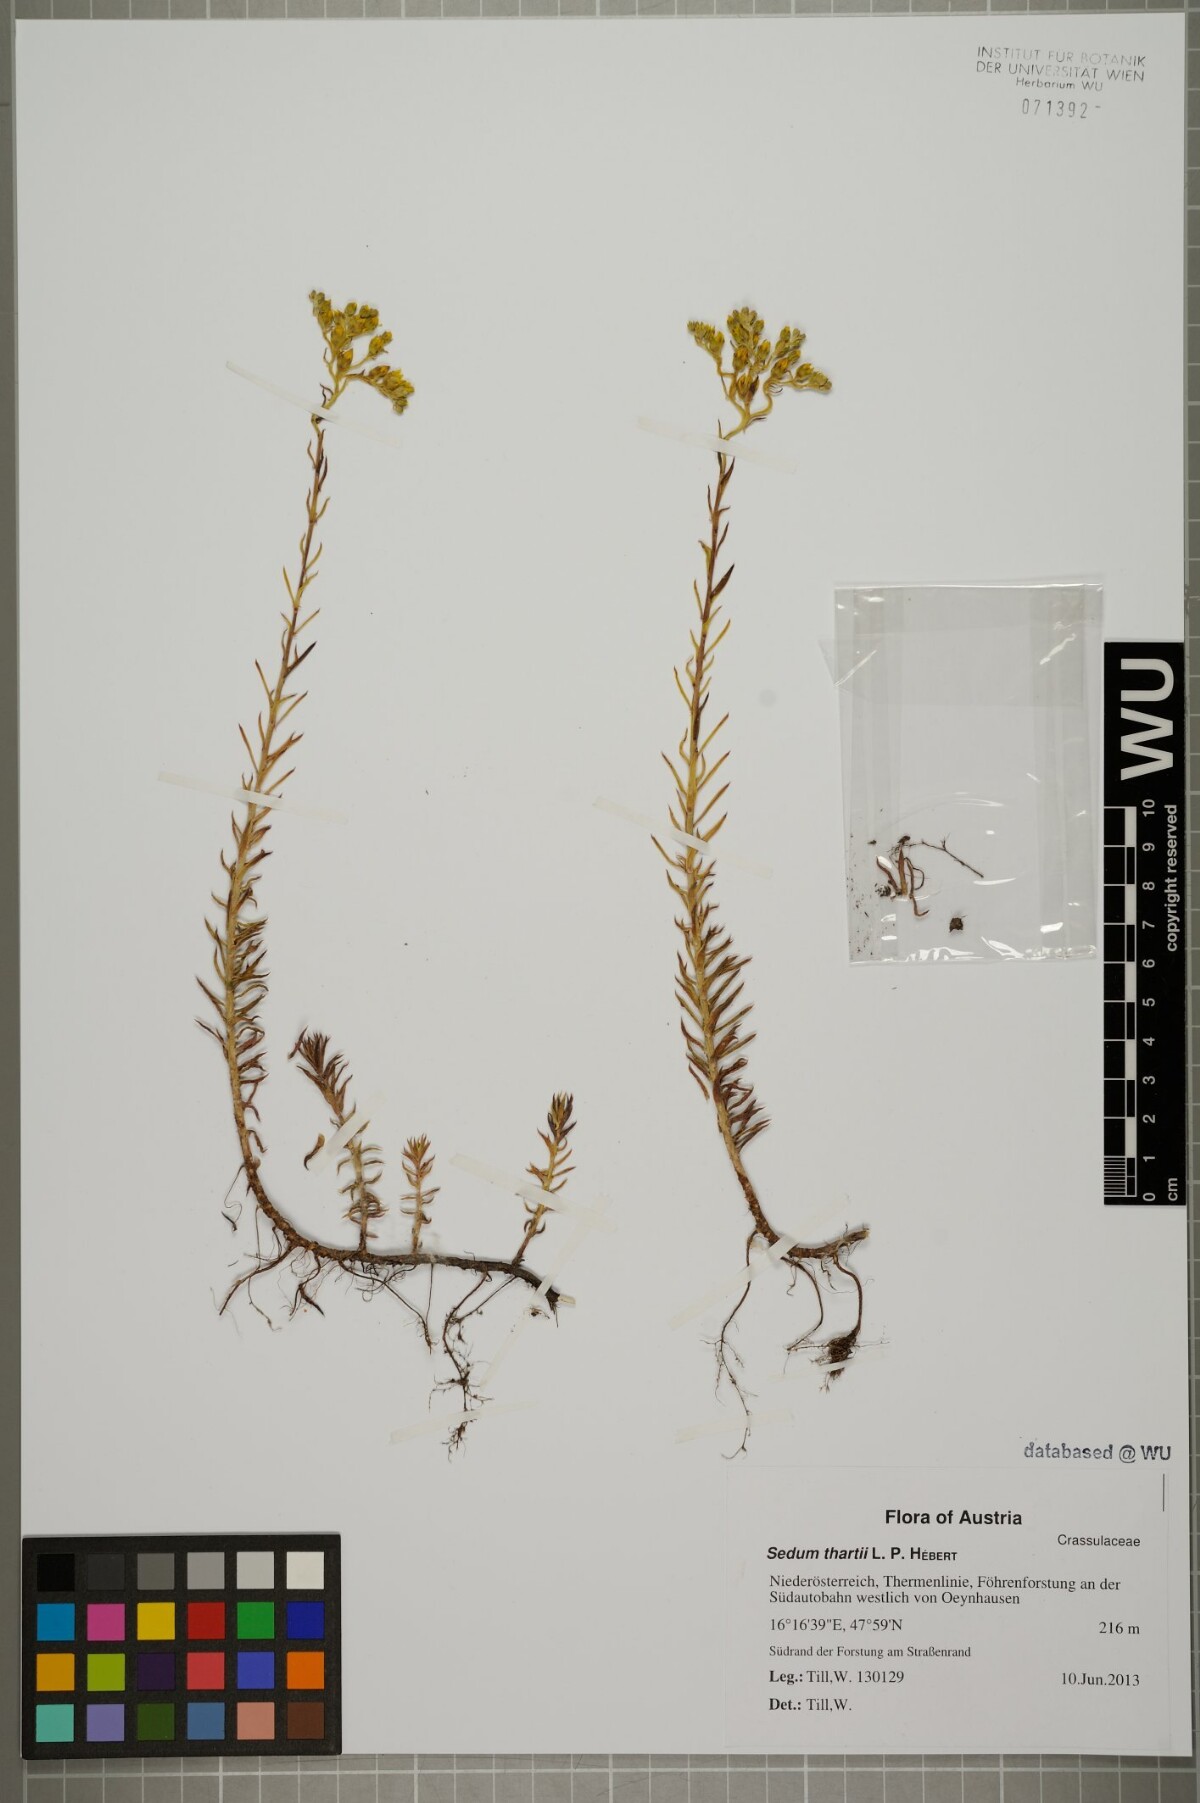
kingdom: Plantae
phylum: Tracheophyta
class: Magnoliopsida
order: Saxifragales
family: Crassulaceae
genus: Petrosedum
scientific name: Petrosedum orientale
